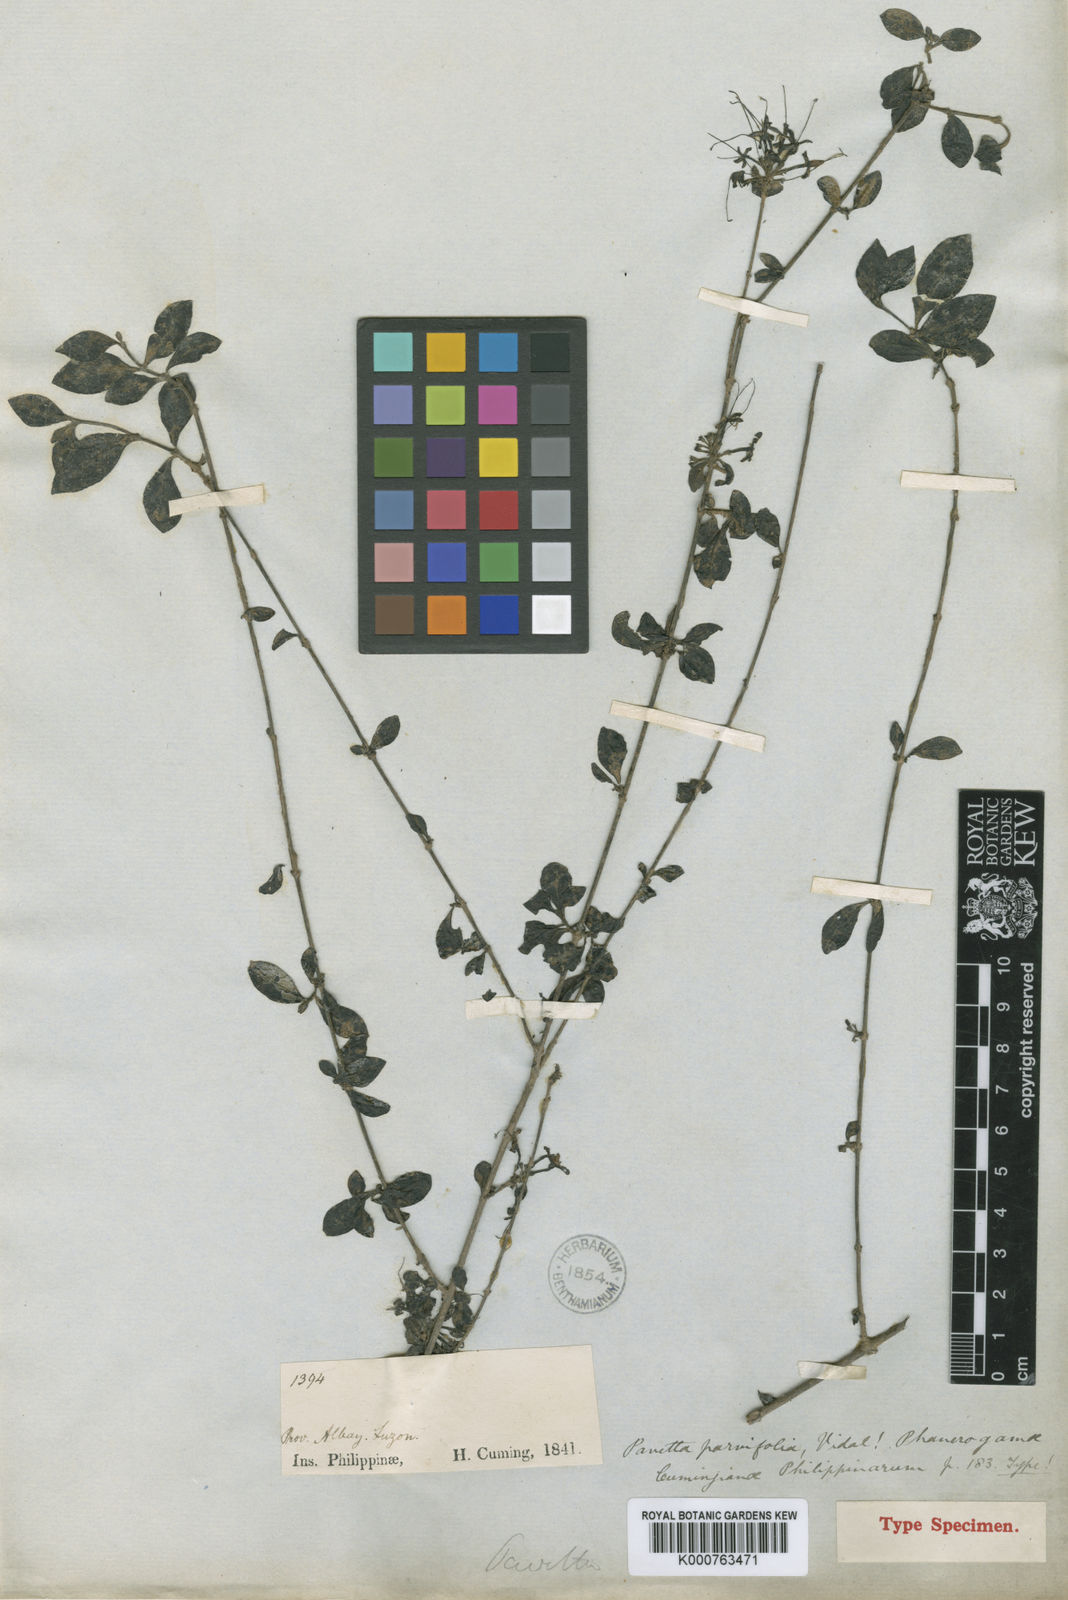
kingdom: Plantae
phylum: Tracheophyta
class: Magnoliopsida
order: Gentianales
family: Rubiaceae
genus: Pavetta
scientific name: Pavetta parvifolia
